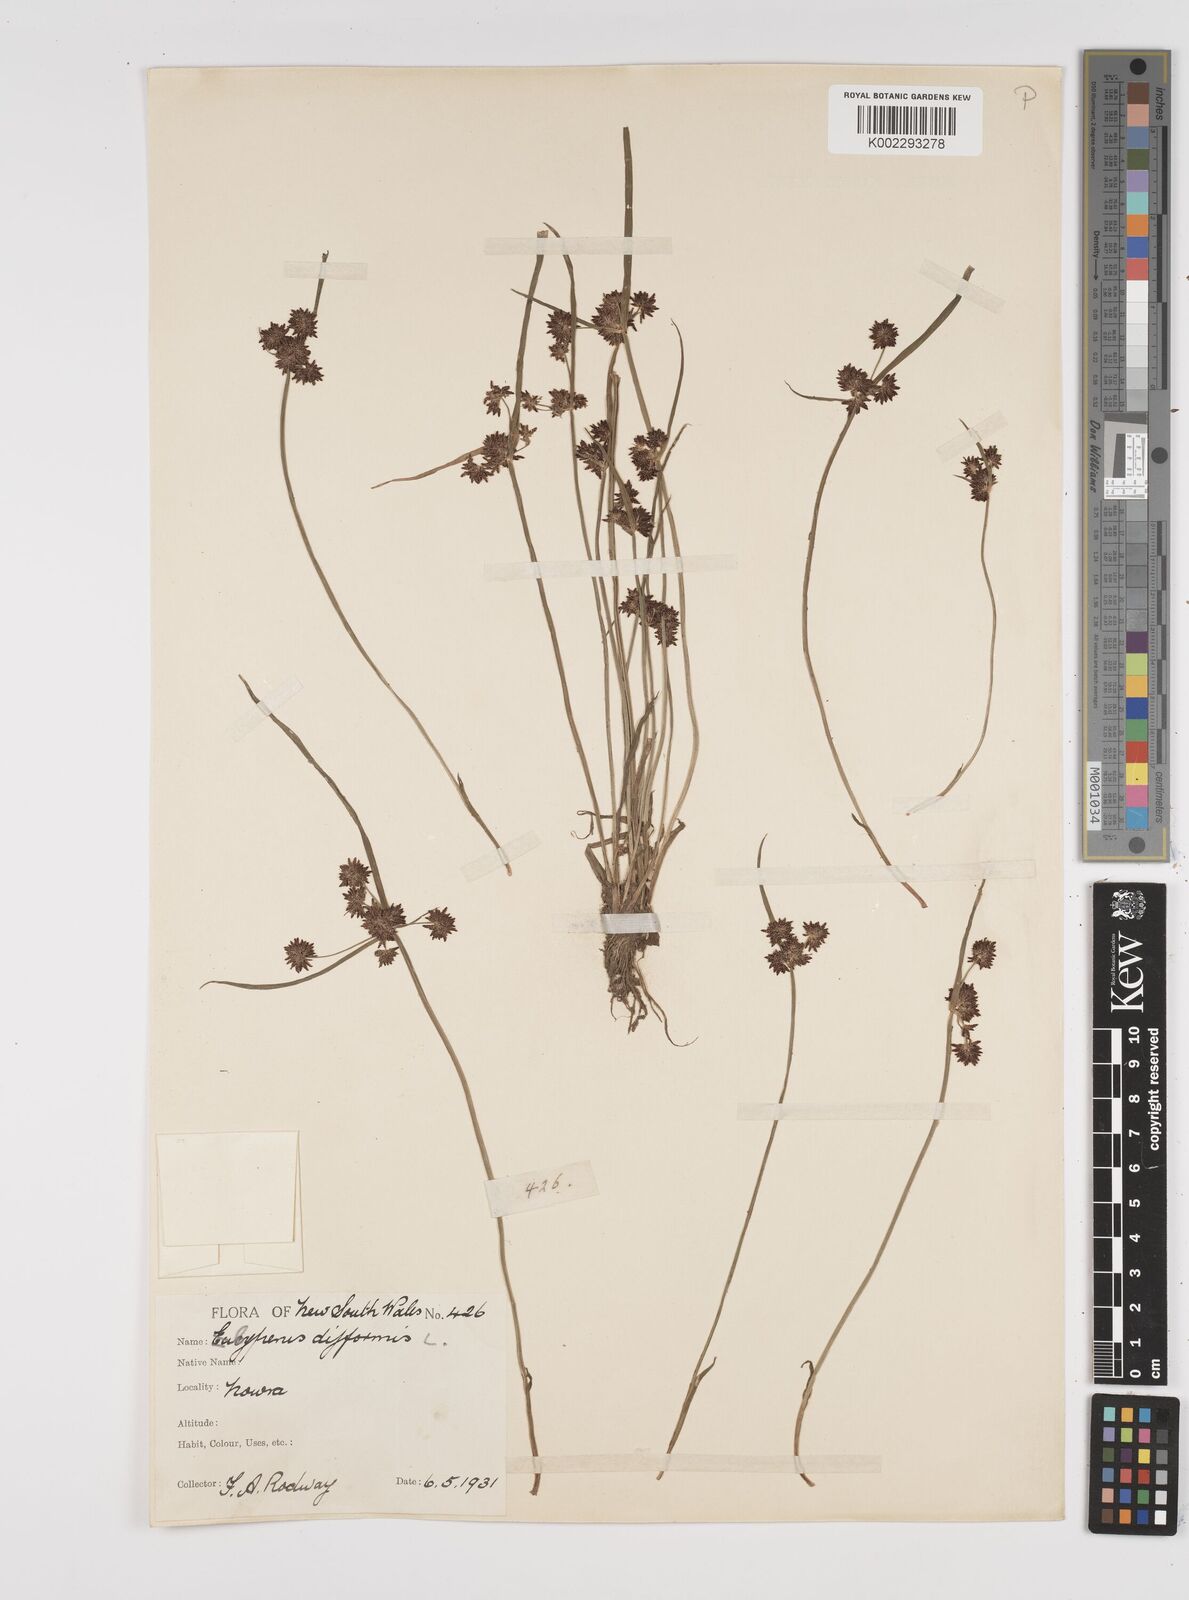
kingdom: Plantae
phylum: Tracheophyta
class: Liliopsida
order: Poales
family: Cyperaceae
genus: Cyperus
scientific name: Cyperus difformis
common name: Variable flatsedge
